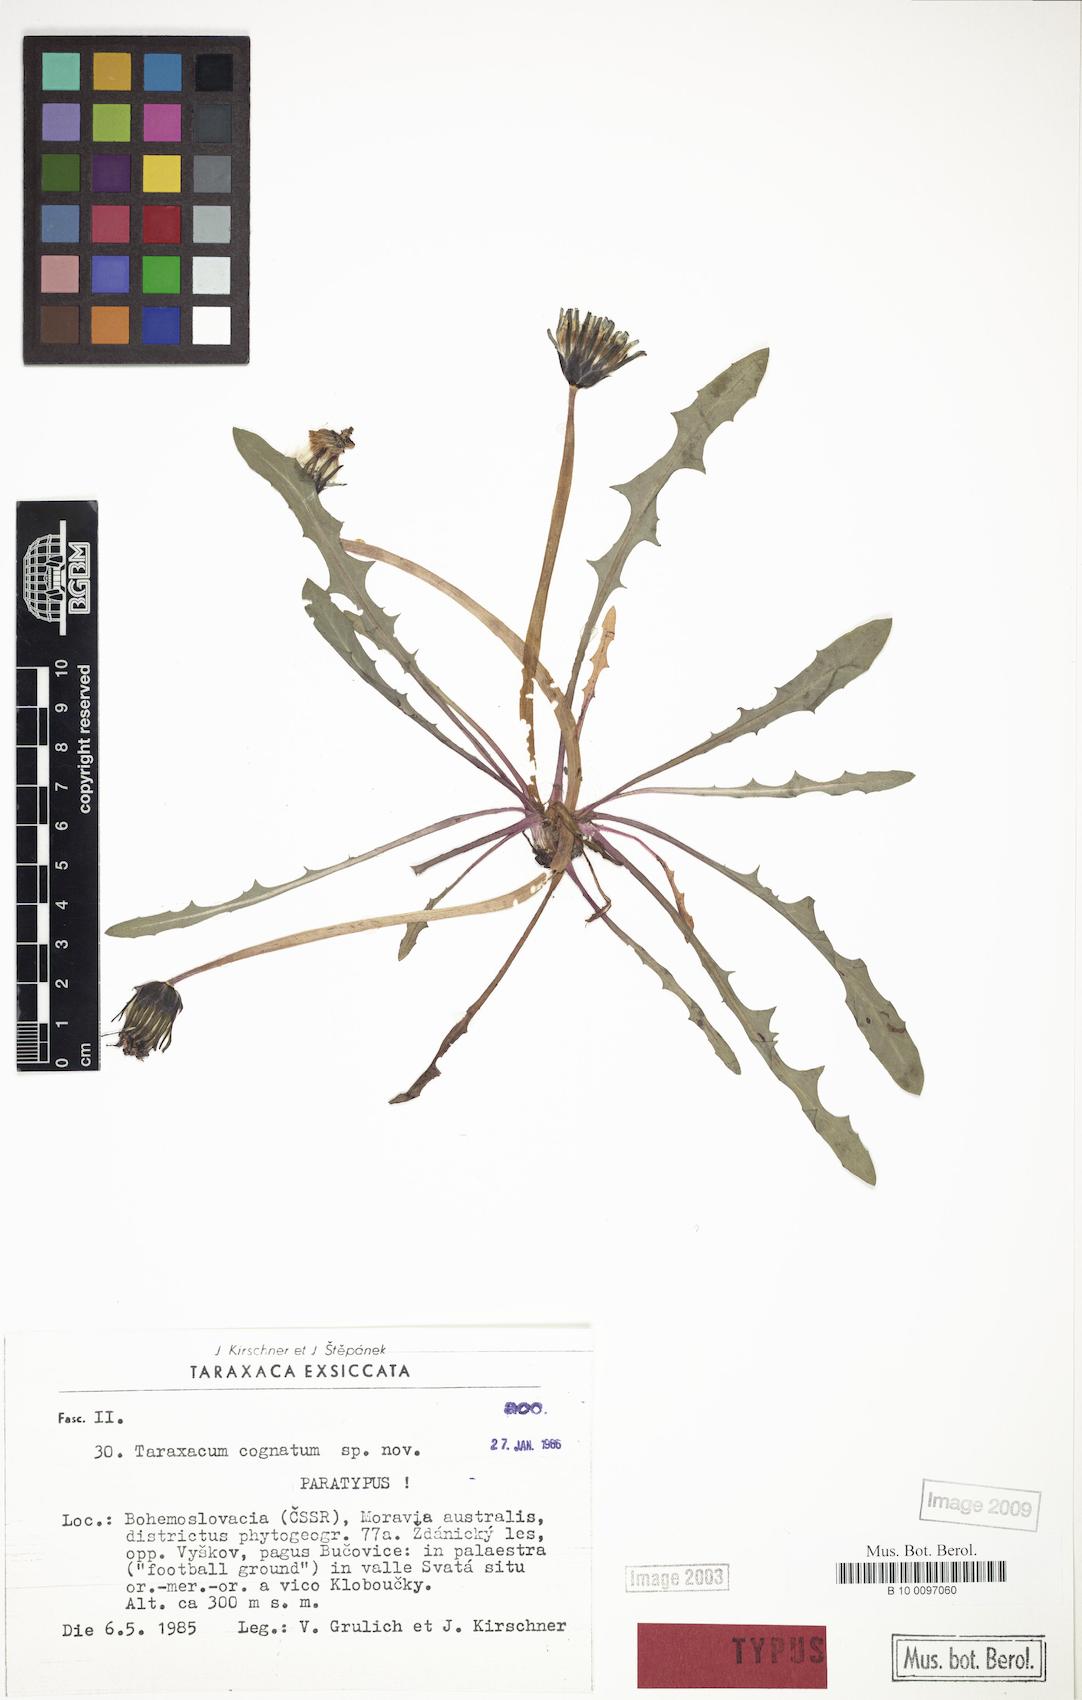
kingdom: Plantae
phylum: Tracheophyta
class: Magnoliopsida
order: Asterales
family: Asteraceae
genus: Taraxacum
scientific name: Taraxacum cognatum
